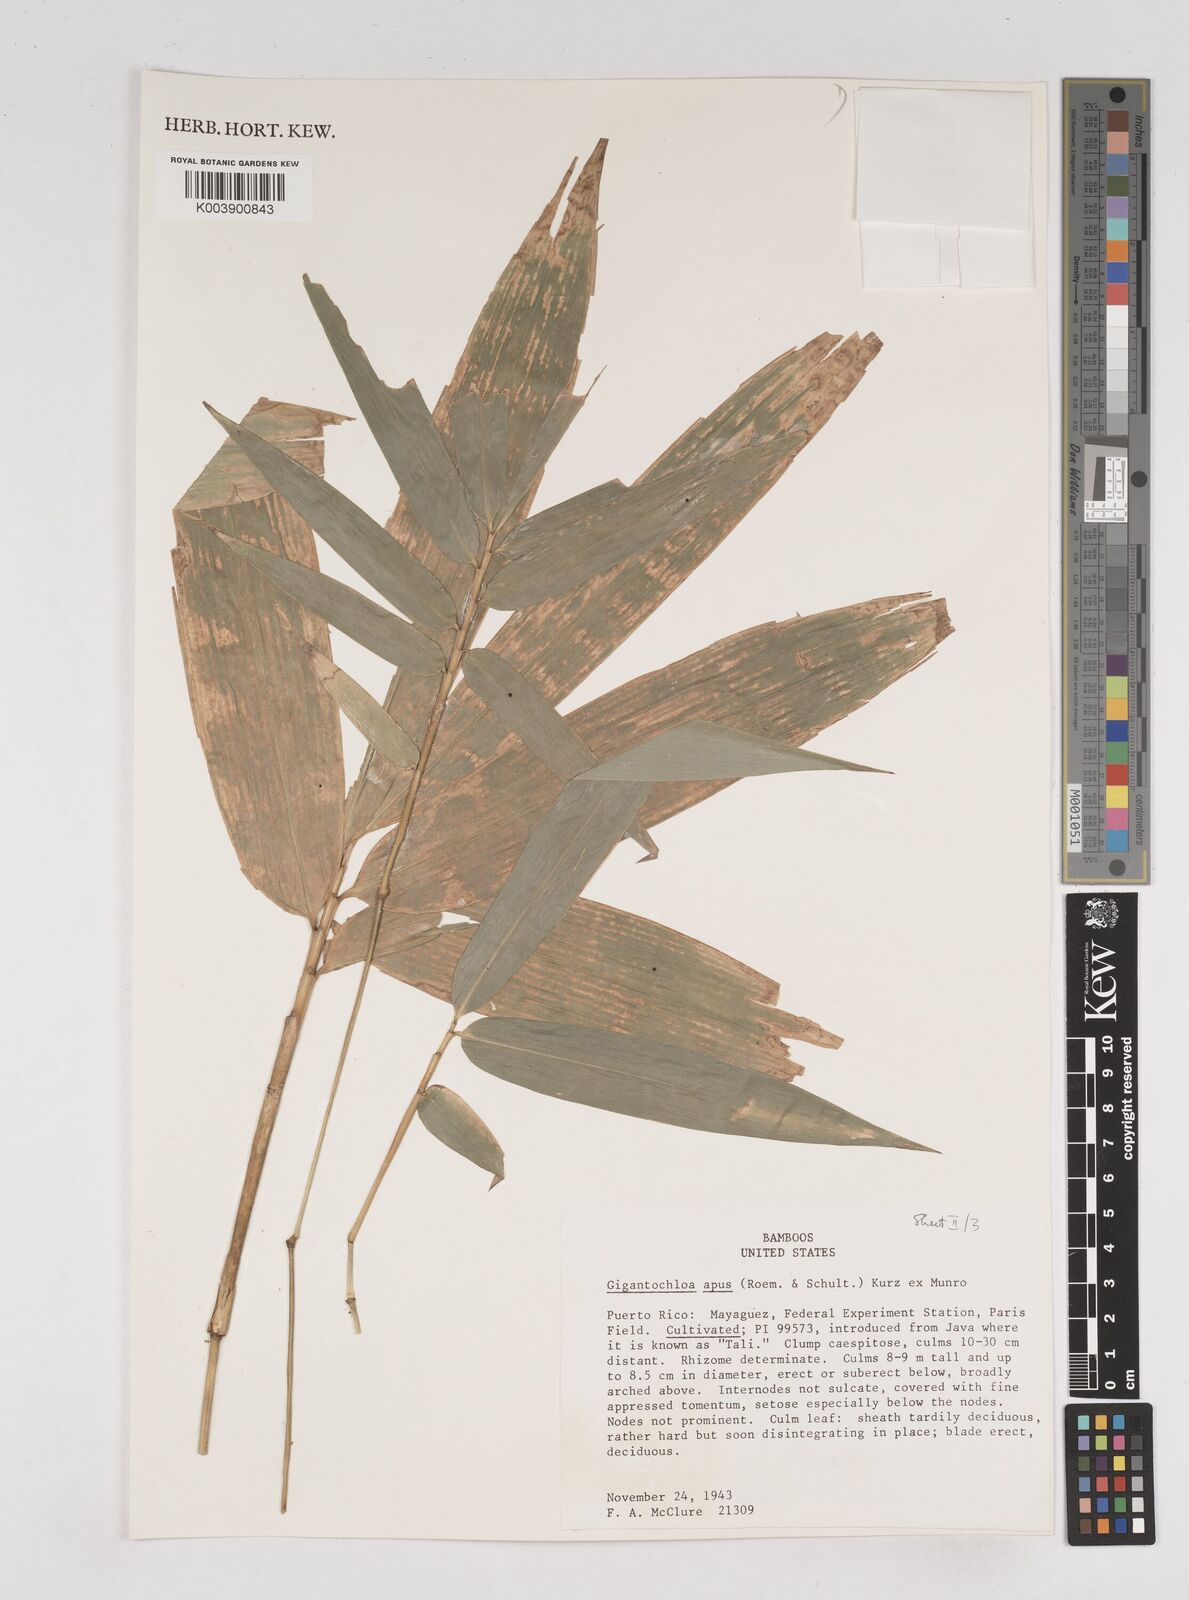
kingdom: Plantae
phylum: Tracheophyta
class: Liliopsida
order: Poales
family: Poaceae
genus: Gigantochloa
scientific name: Gigantochloa apus
